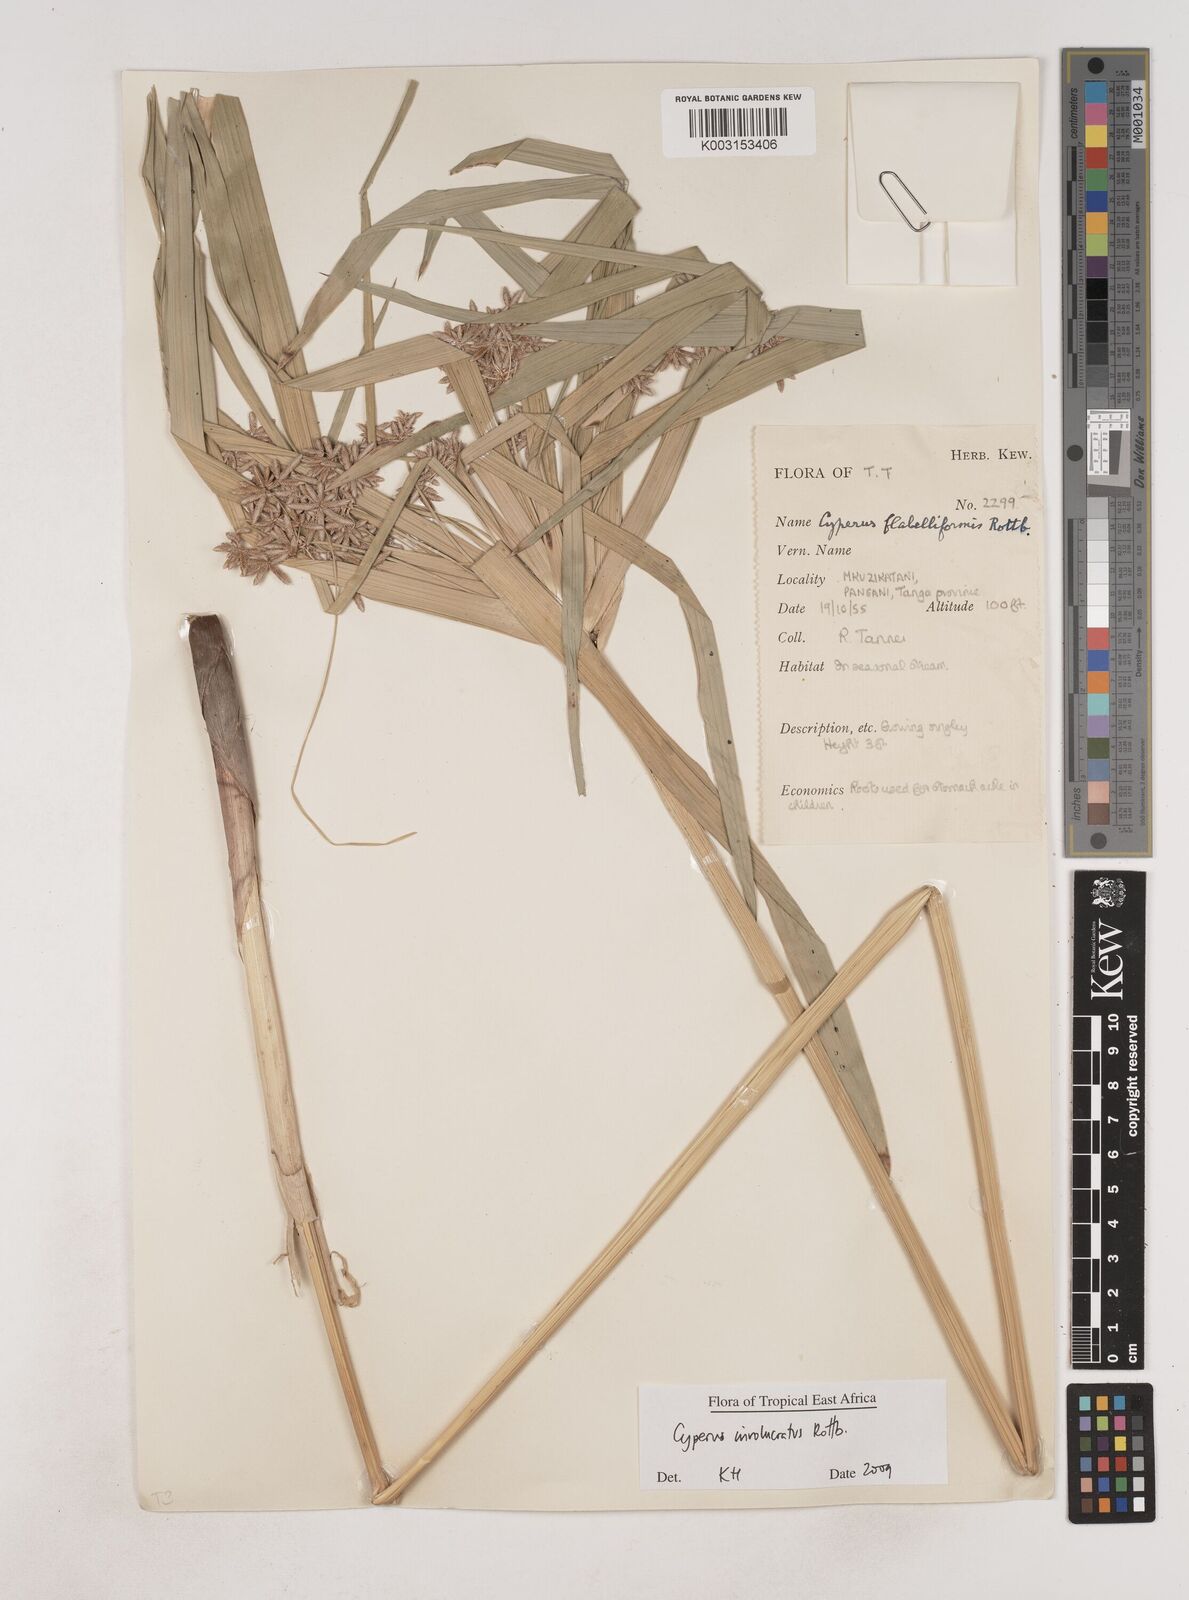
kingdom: Plantae
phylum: Tracheophyta
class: Liliopsida
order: Poales
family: Cyperaceae
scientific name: Cyperaceae
